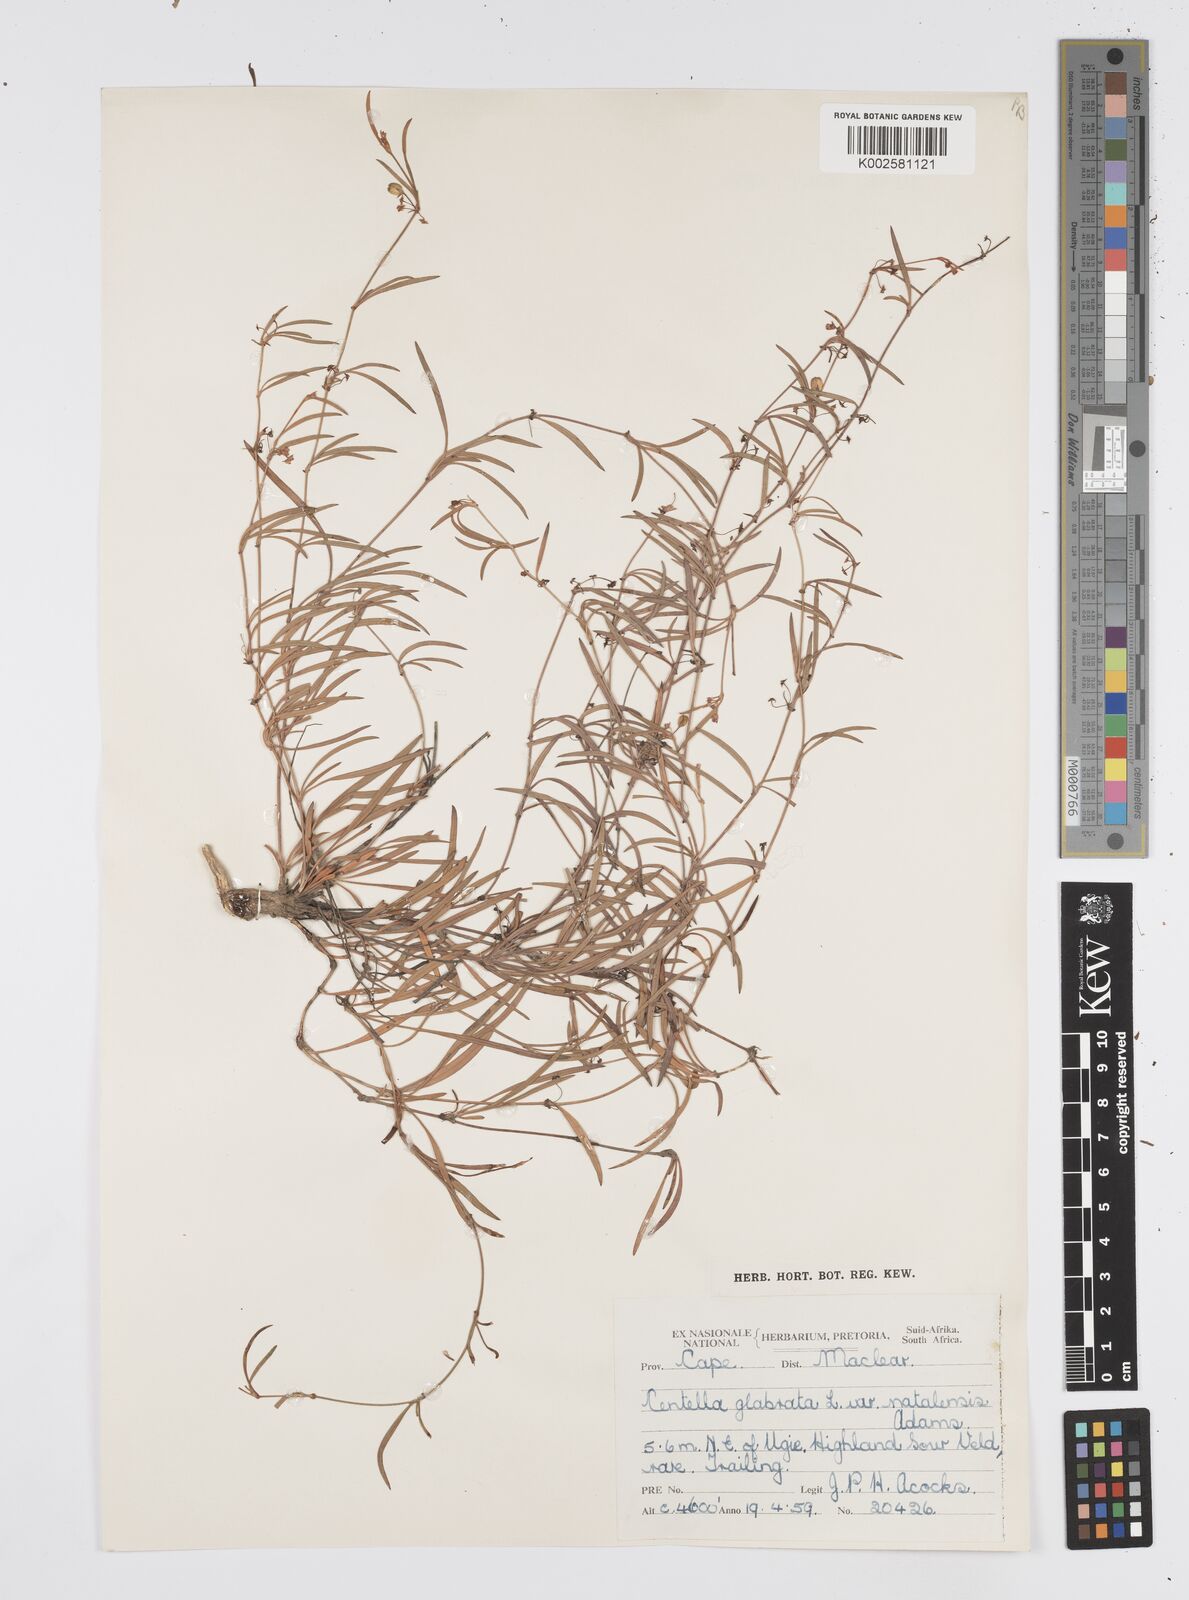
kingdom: Plantae
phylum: Tracheophyta
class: Magnoliopsida
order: Apiales
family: Apiaceae
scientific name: Apiaceae
